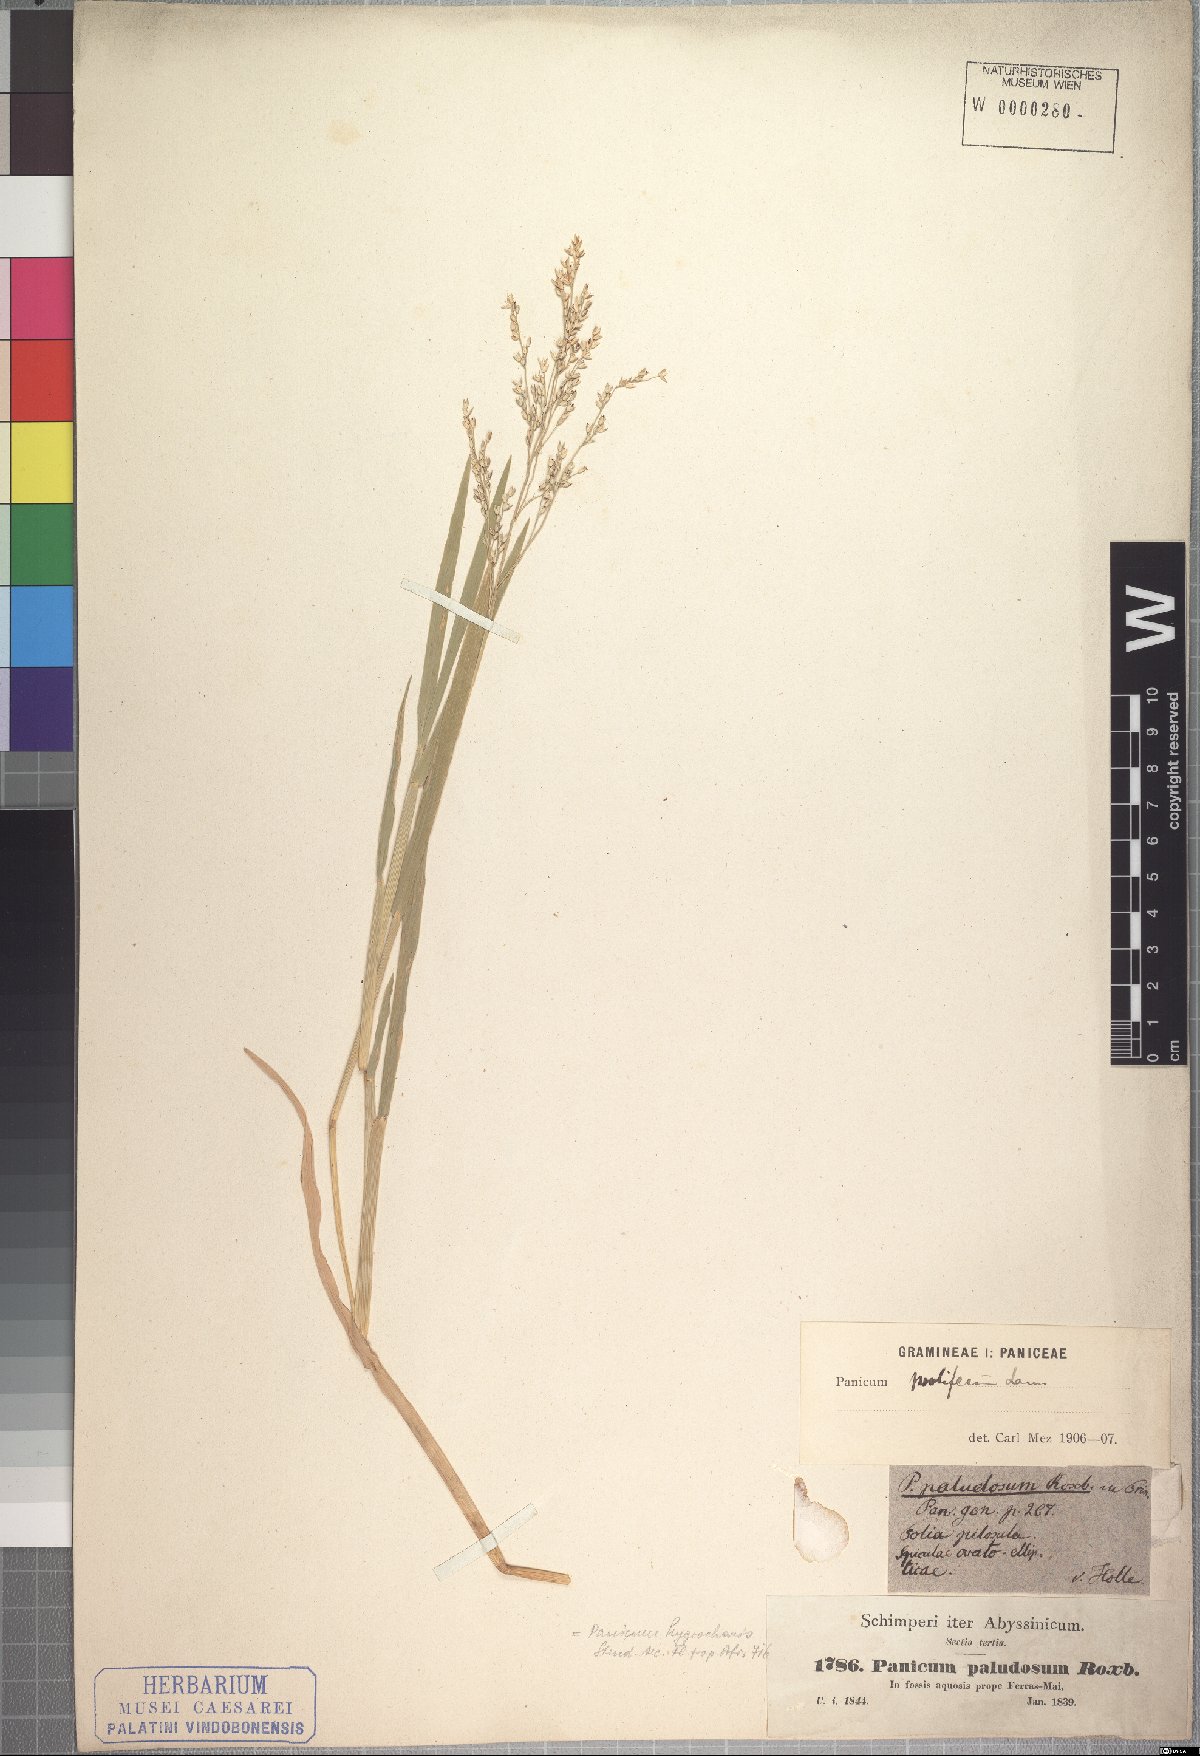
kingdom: Plantae
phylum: Tracheophyta
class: Liliopsida
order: Poales
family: Poaceae
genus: Panicum
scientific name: Panicum hygrocharis
